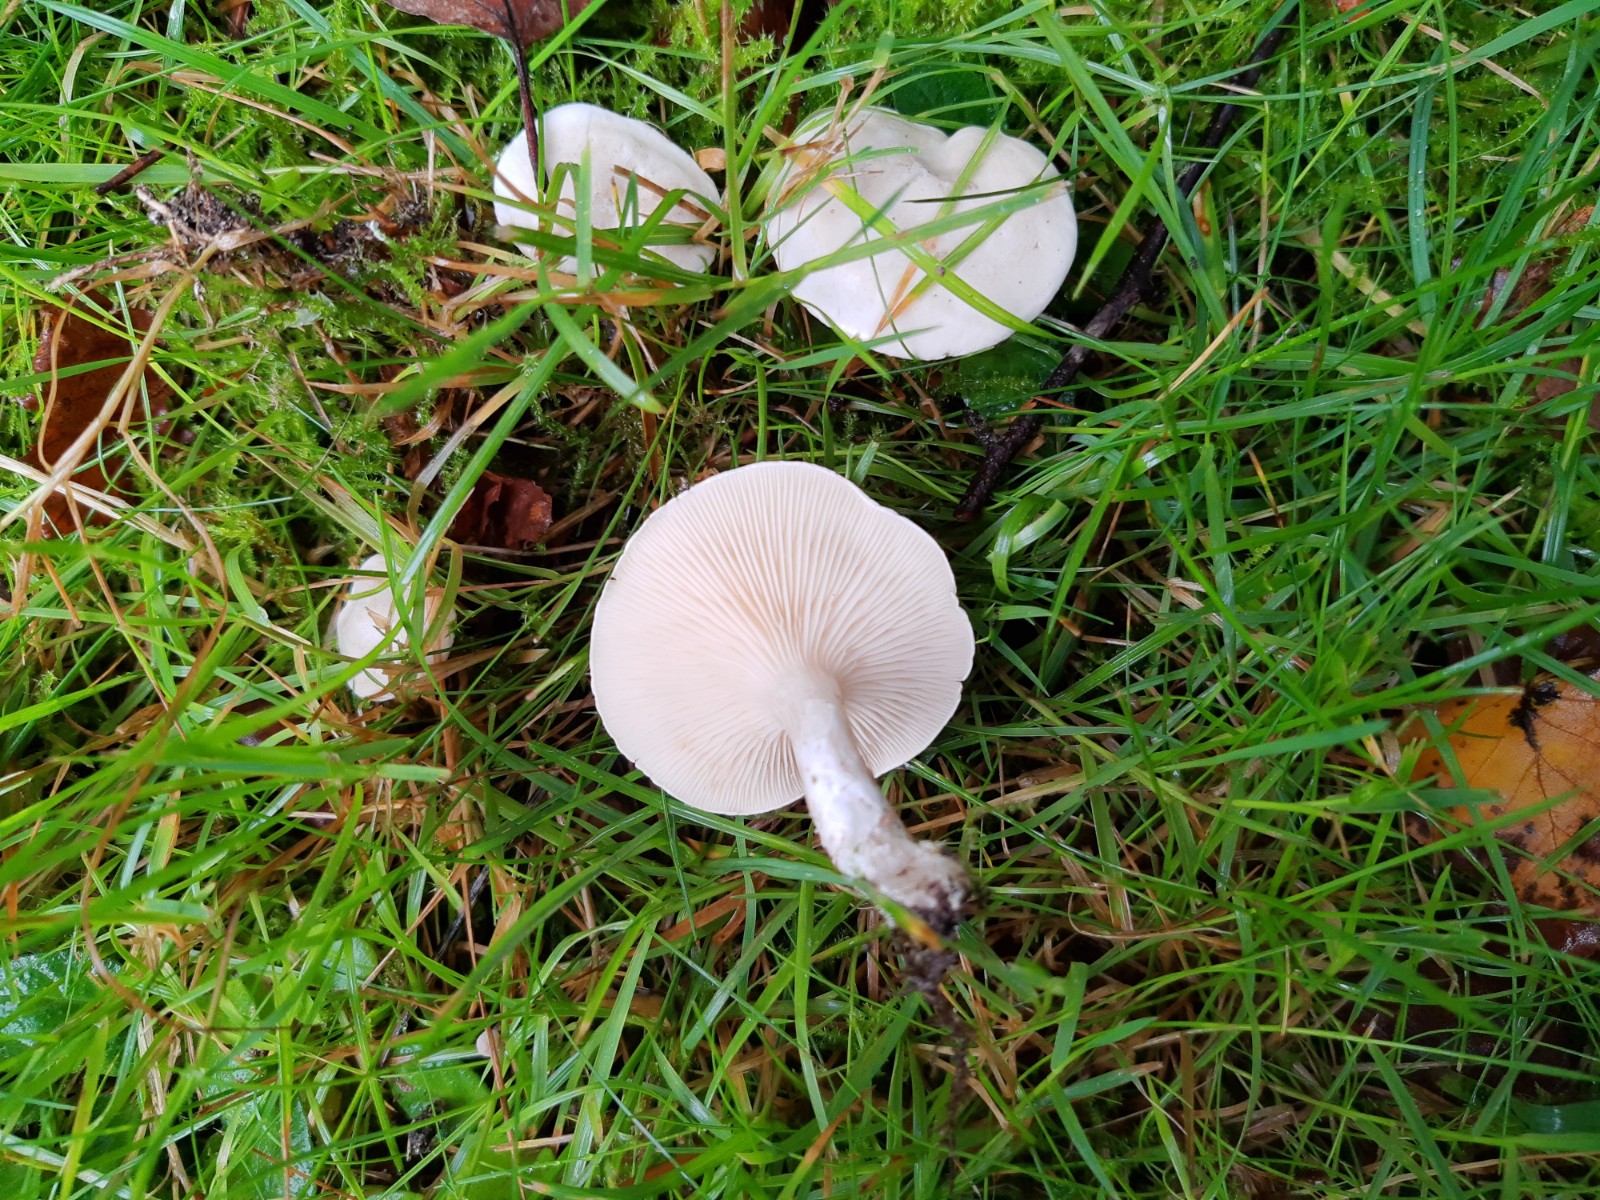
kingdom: Fungi
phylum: Basidiomycota
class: Agaricomycetes
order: Agaricales
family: Entolomataceae
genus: Clitopilus
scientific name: Clitopilus prunulus
